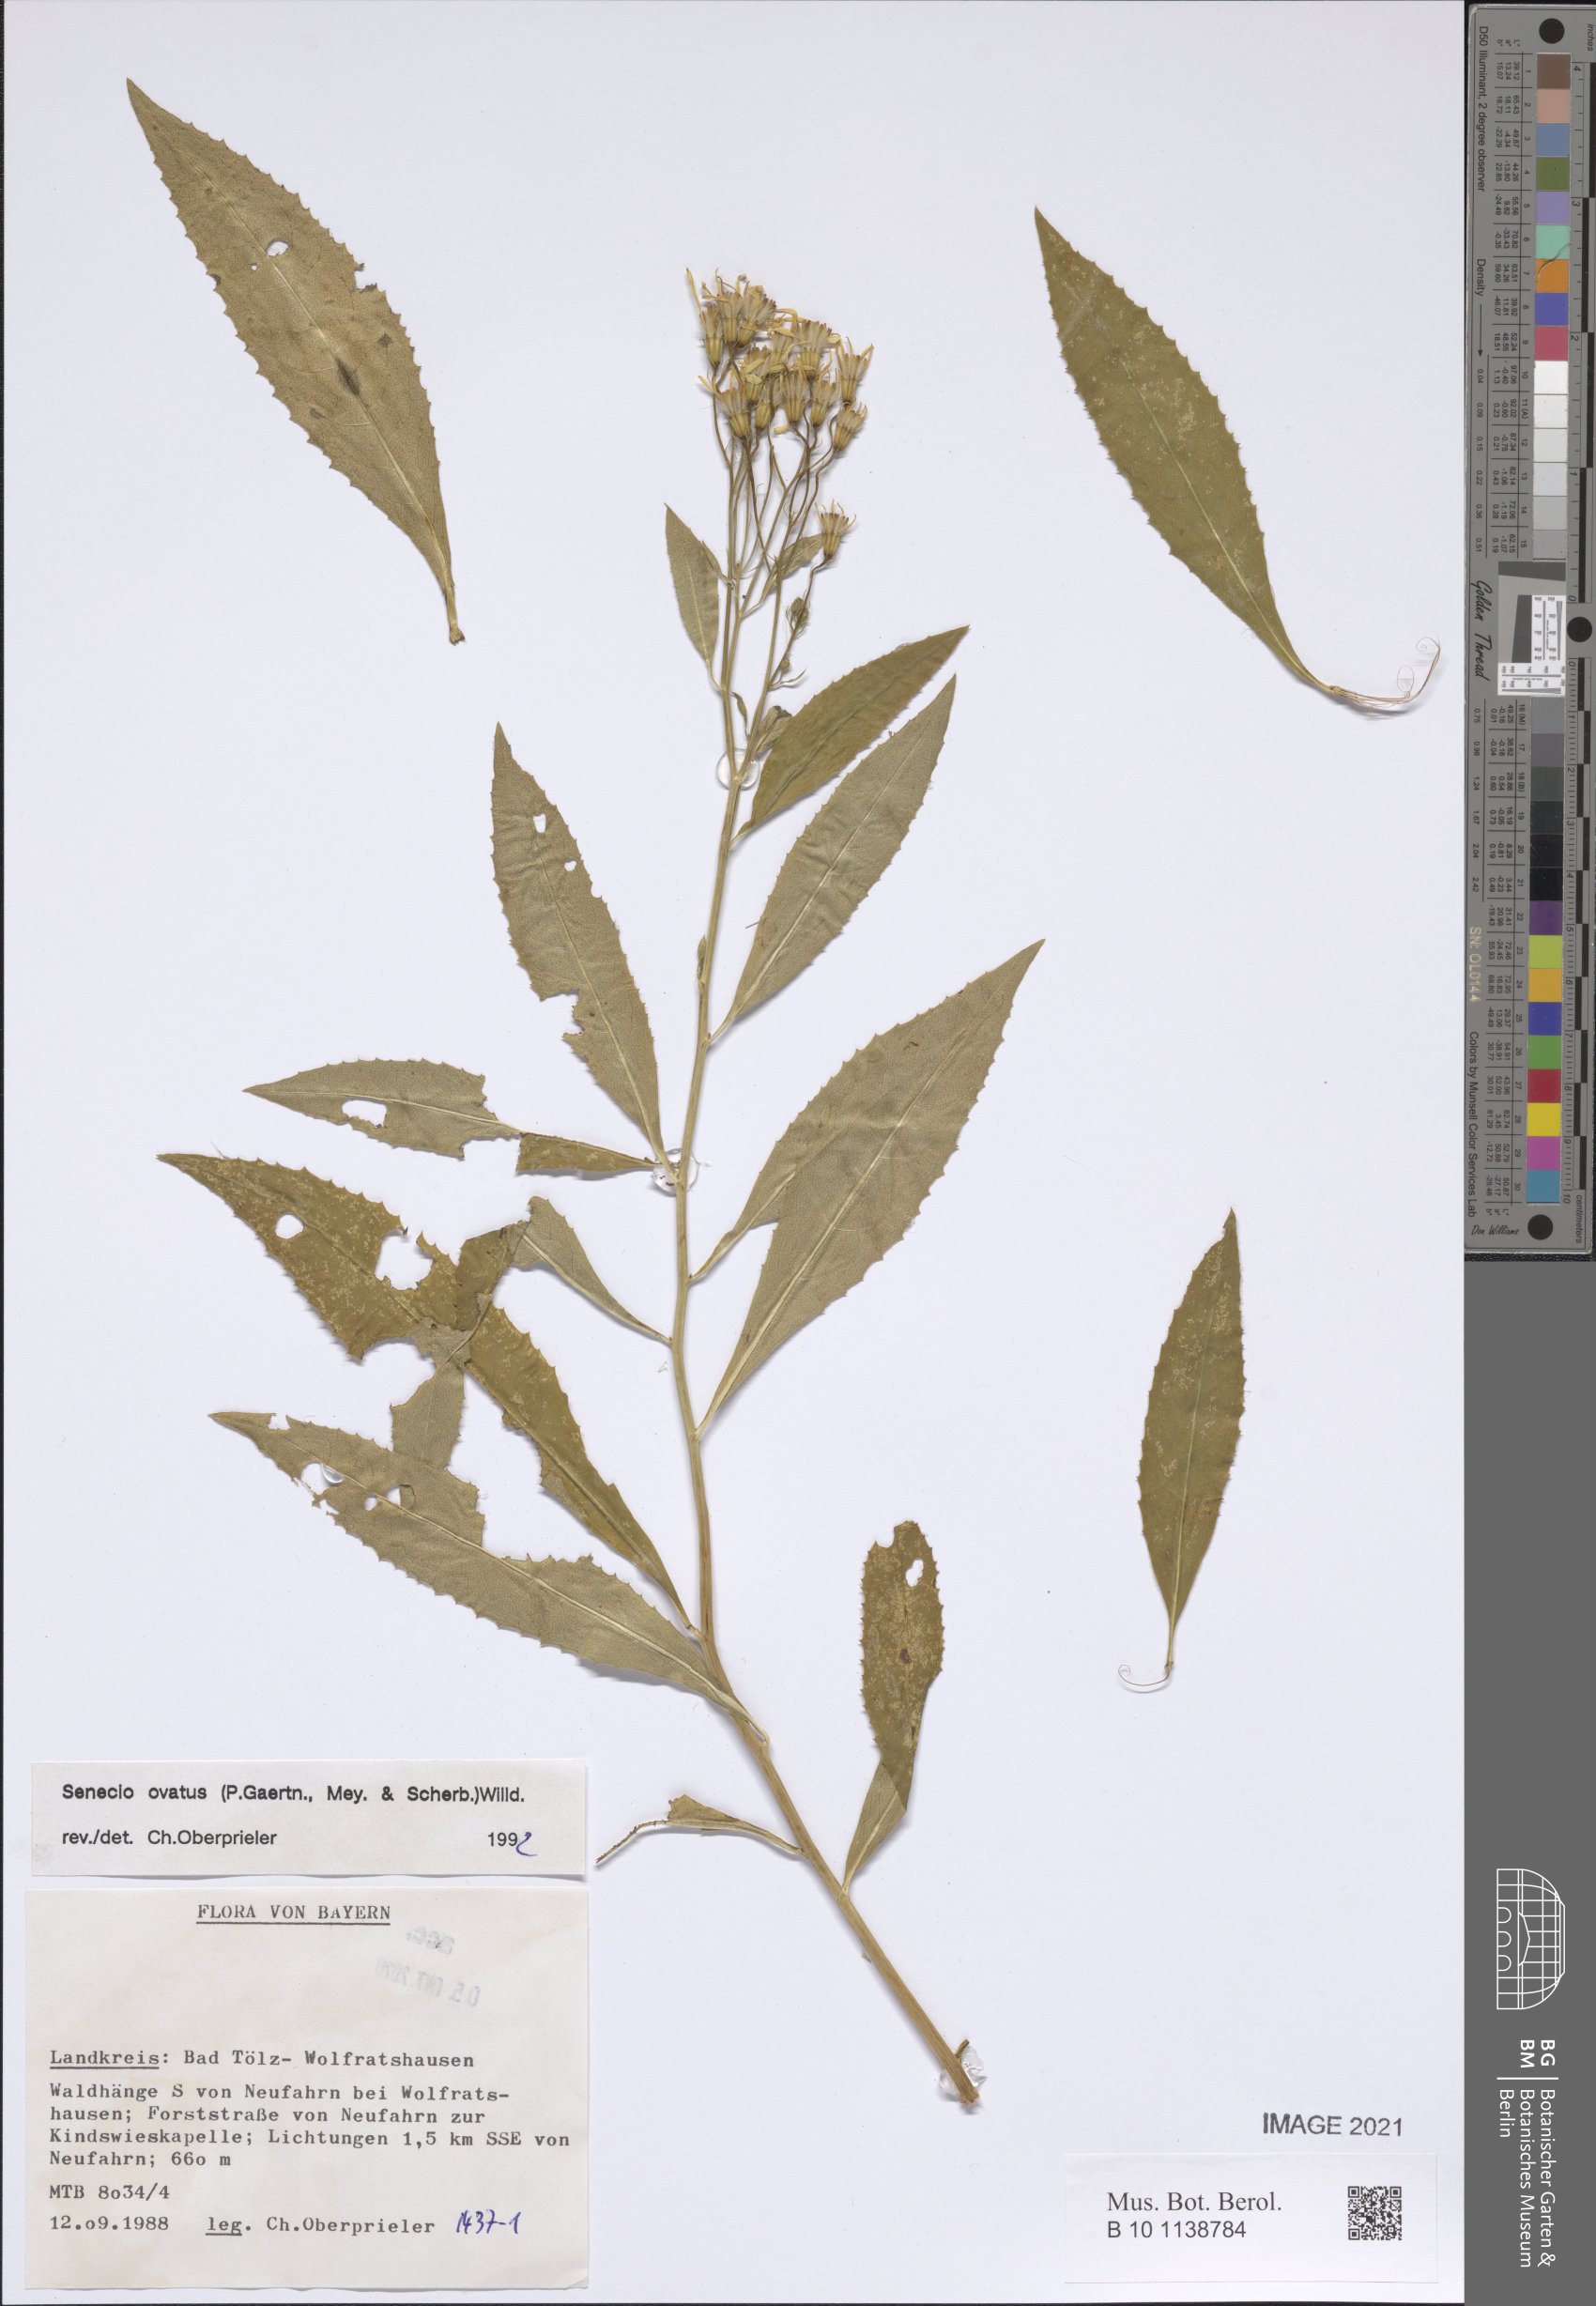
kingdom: Plantae
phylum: Tracheophyta
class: Magnoliopsida
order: Asterales
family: Asteraceae
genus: Senecio
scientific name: Senecio ovatus
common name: Wood ragwort
